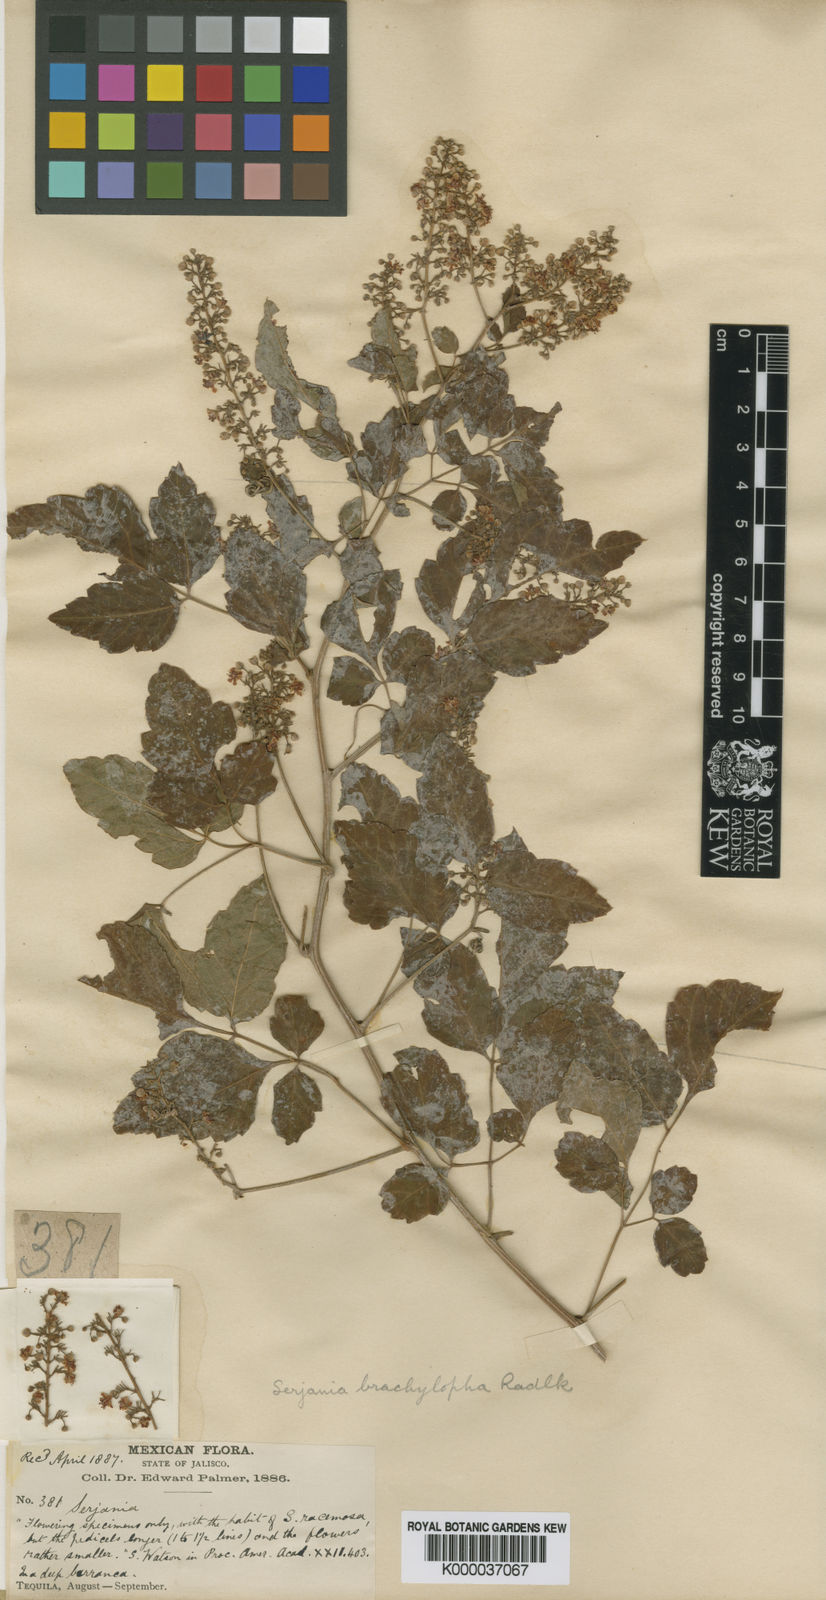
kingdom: Plantae
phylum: Tracheophyta
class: Magnoliopsida
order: Sapindales
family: Sapindaceae
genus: Serjania
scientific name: Serjania brachylopha
